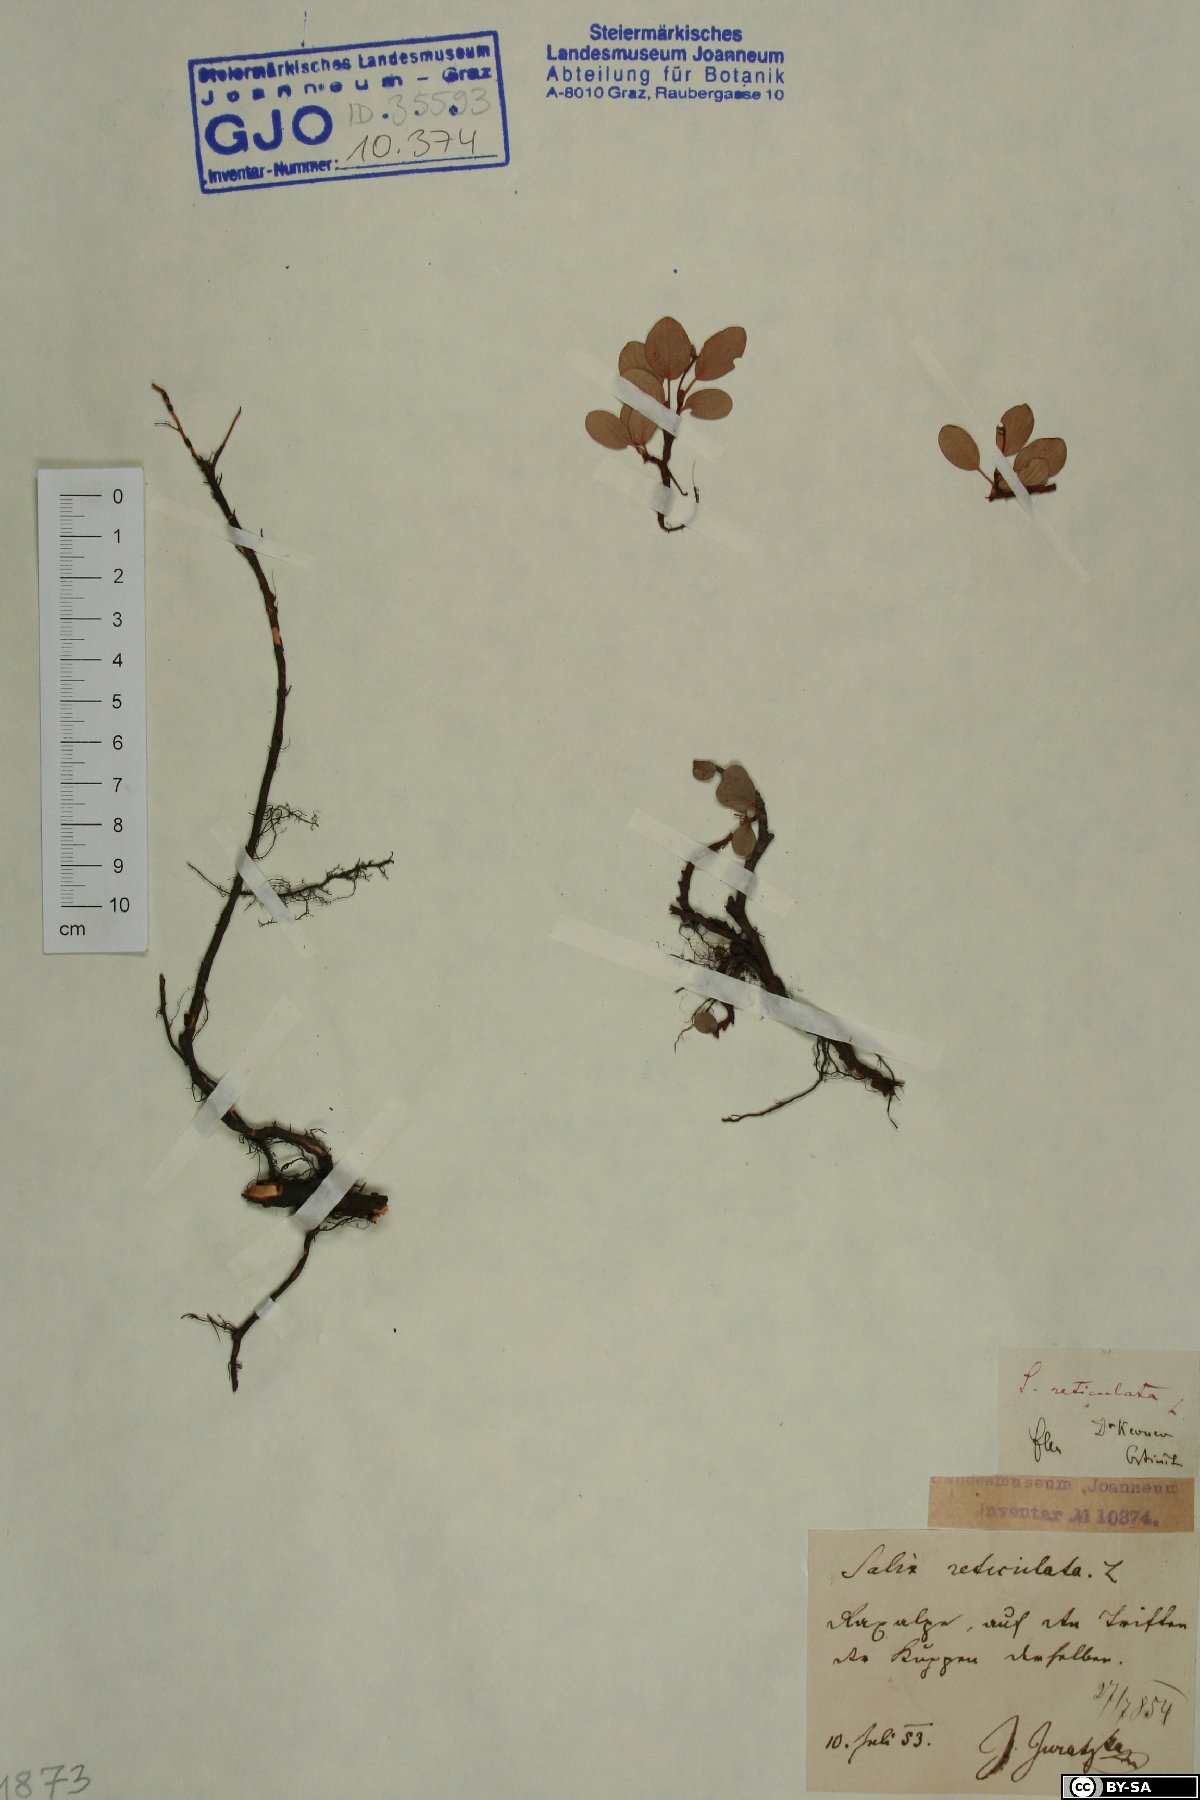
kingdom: Plantae
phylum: Tracheophyta
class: Magnoliopsida
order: Malpighiales
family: Salicaceae
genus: Salix
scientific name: Salix reticulata
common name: Net-leaved willow
